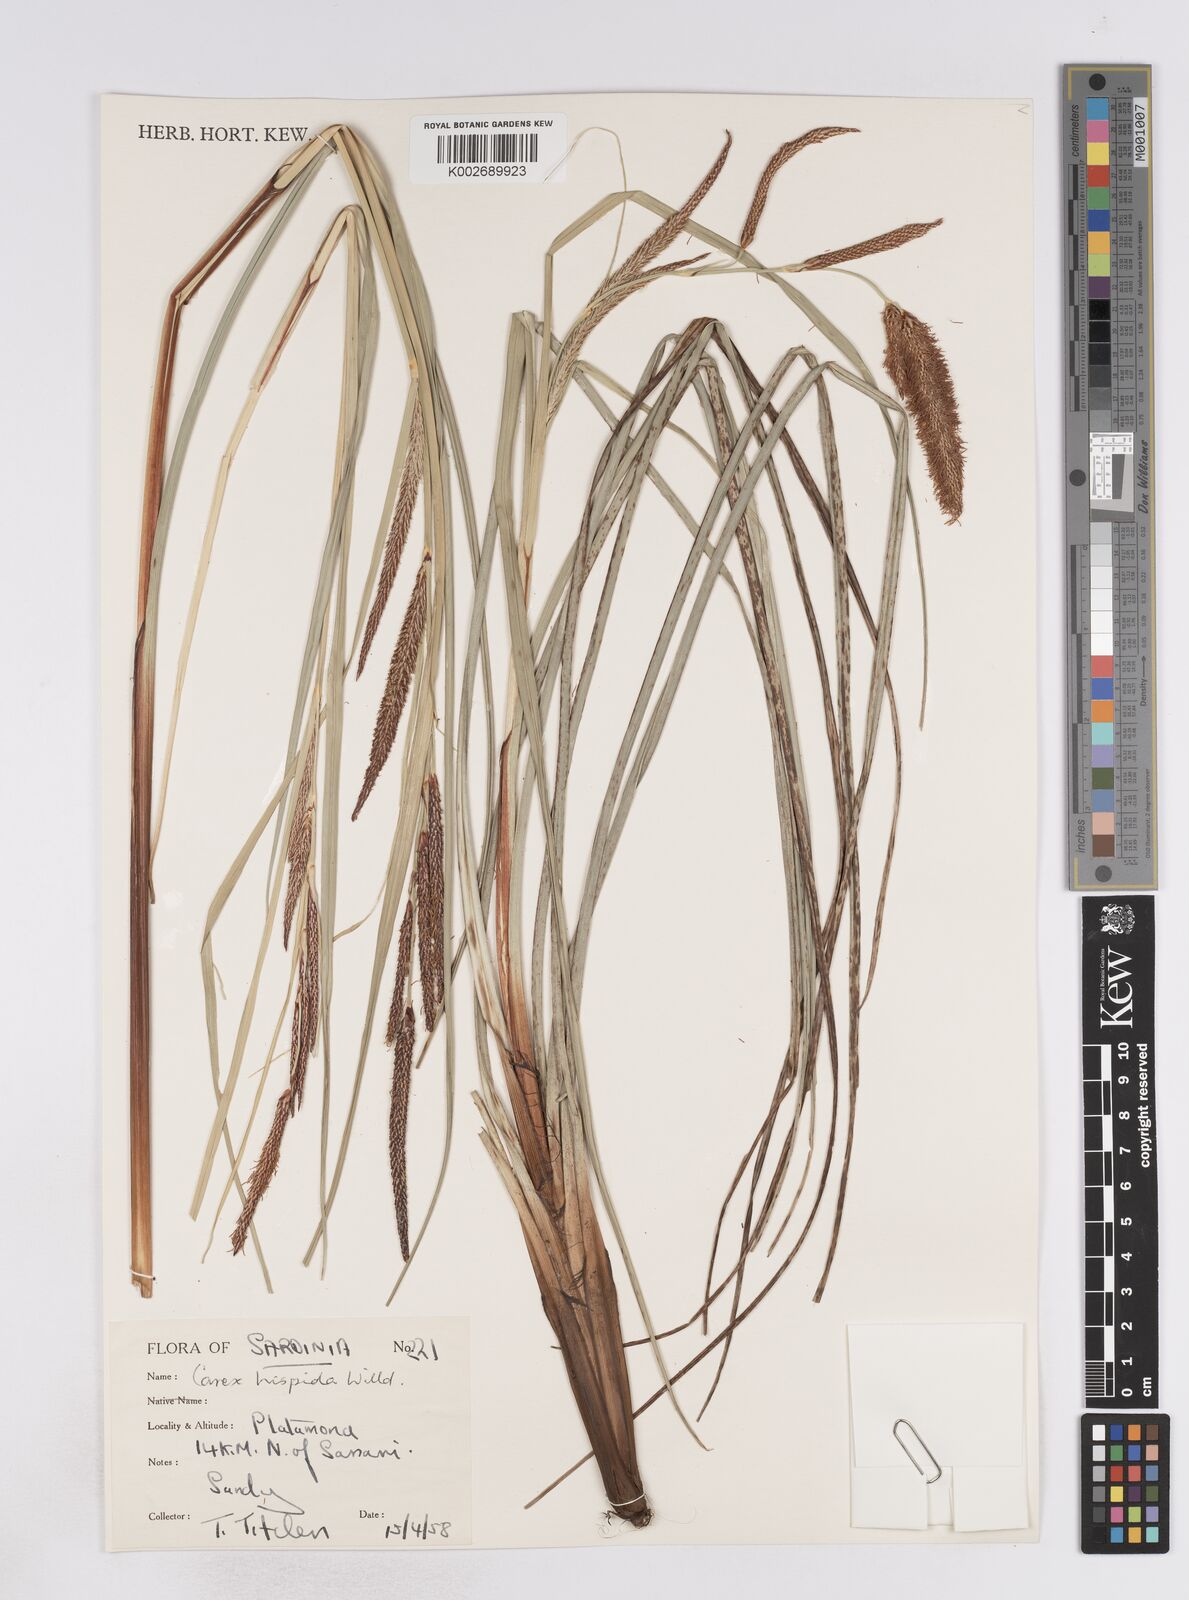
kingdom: Plantae
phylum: Tracheophyta
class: Liliopsida
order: Poales
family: Cyperaceae
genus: Carex
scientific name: Carex hispida
